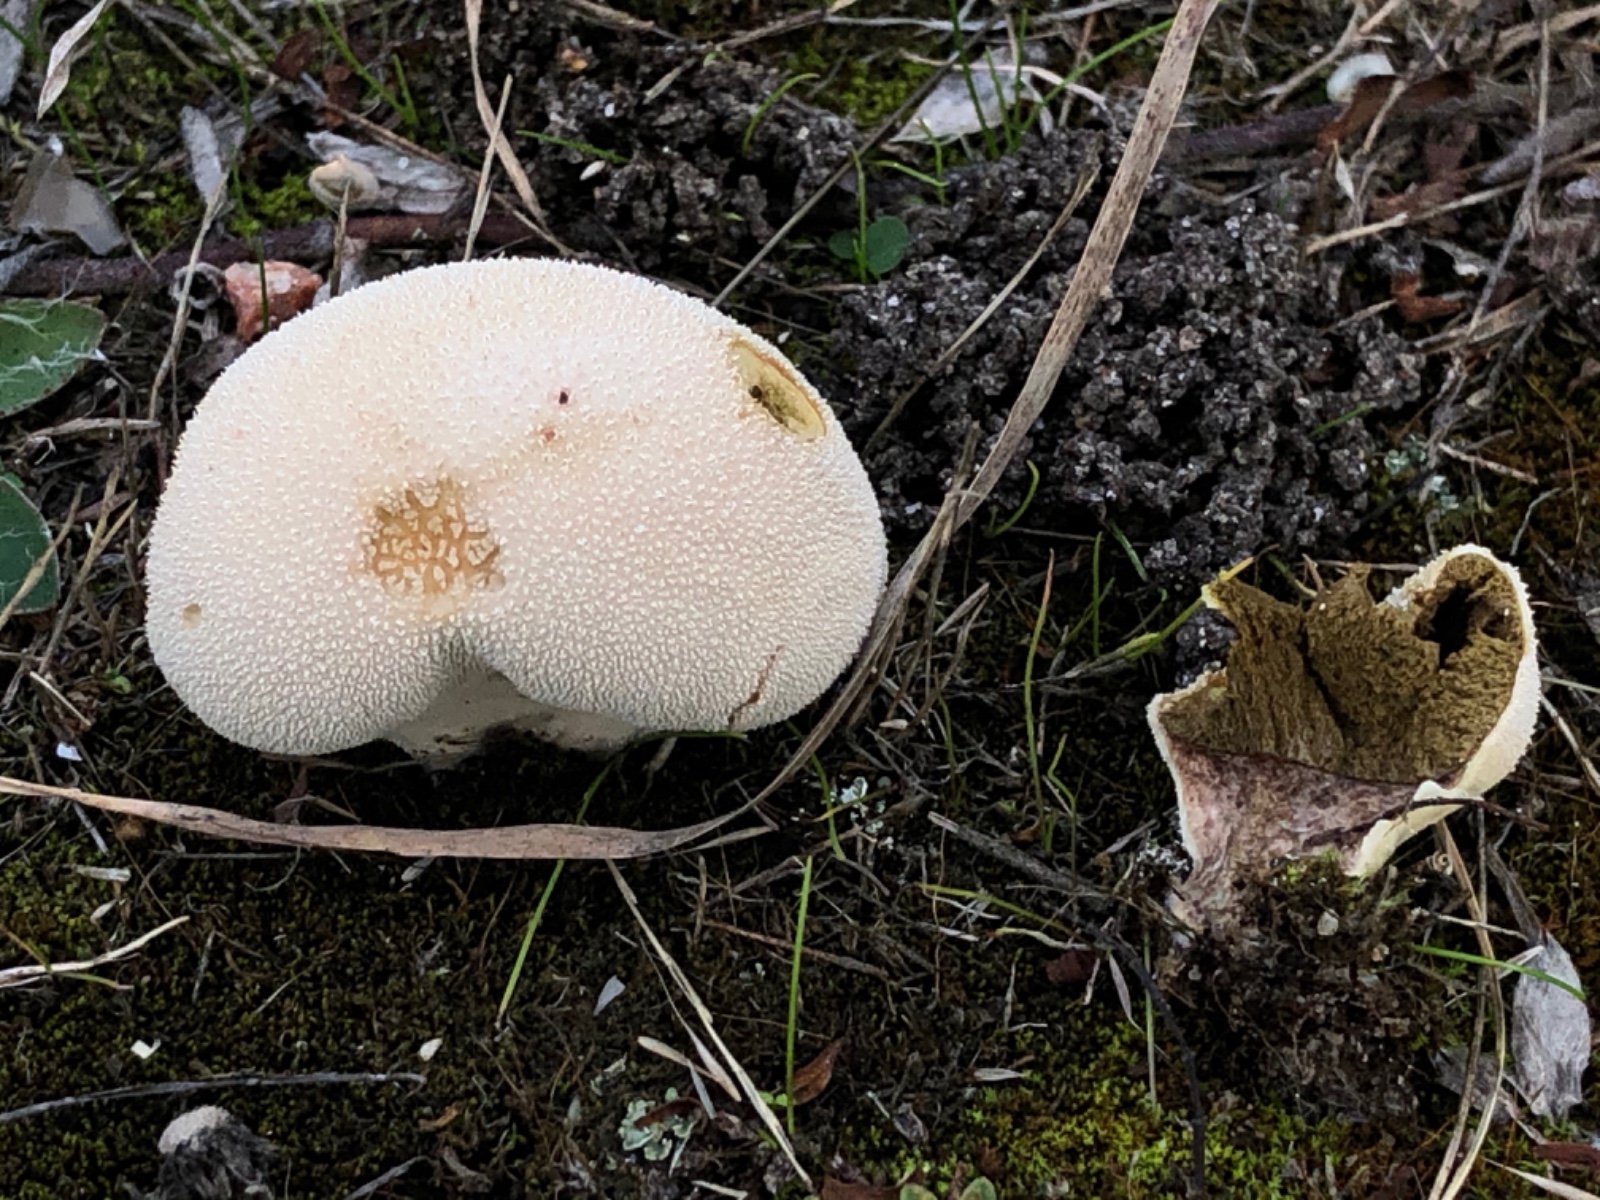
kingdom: Fungi
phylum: Basidiomycota
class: Agaricomycetes
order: Agaricales
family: Lycoperdaceae
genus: Lycoperdon
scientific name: Lycoperdon pratense
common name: flad støvbold
